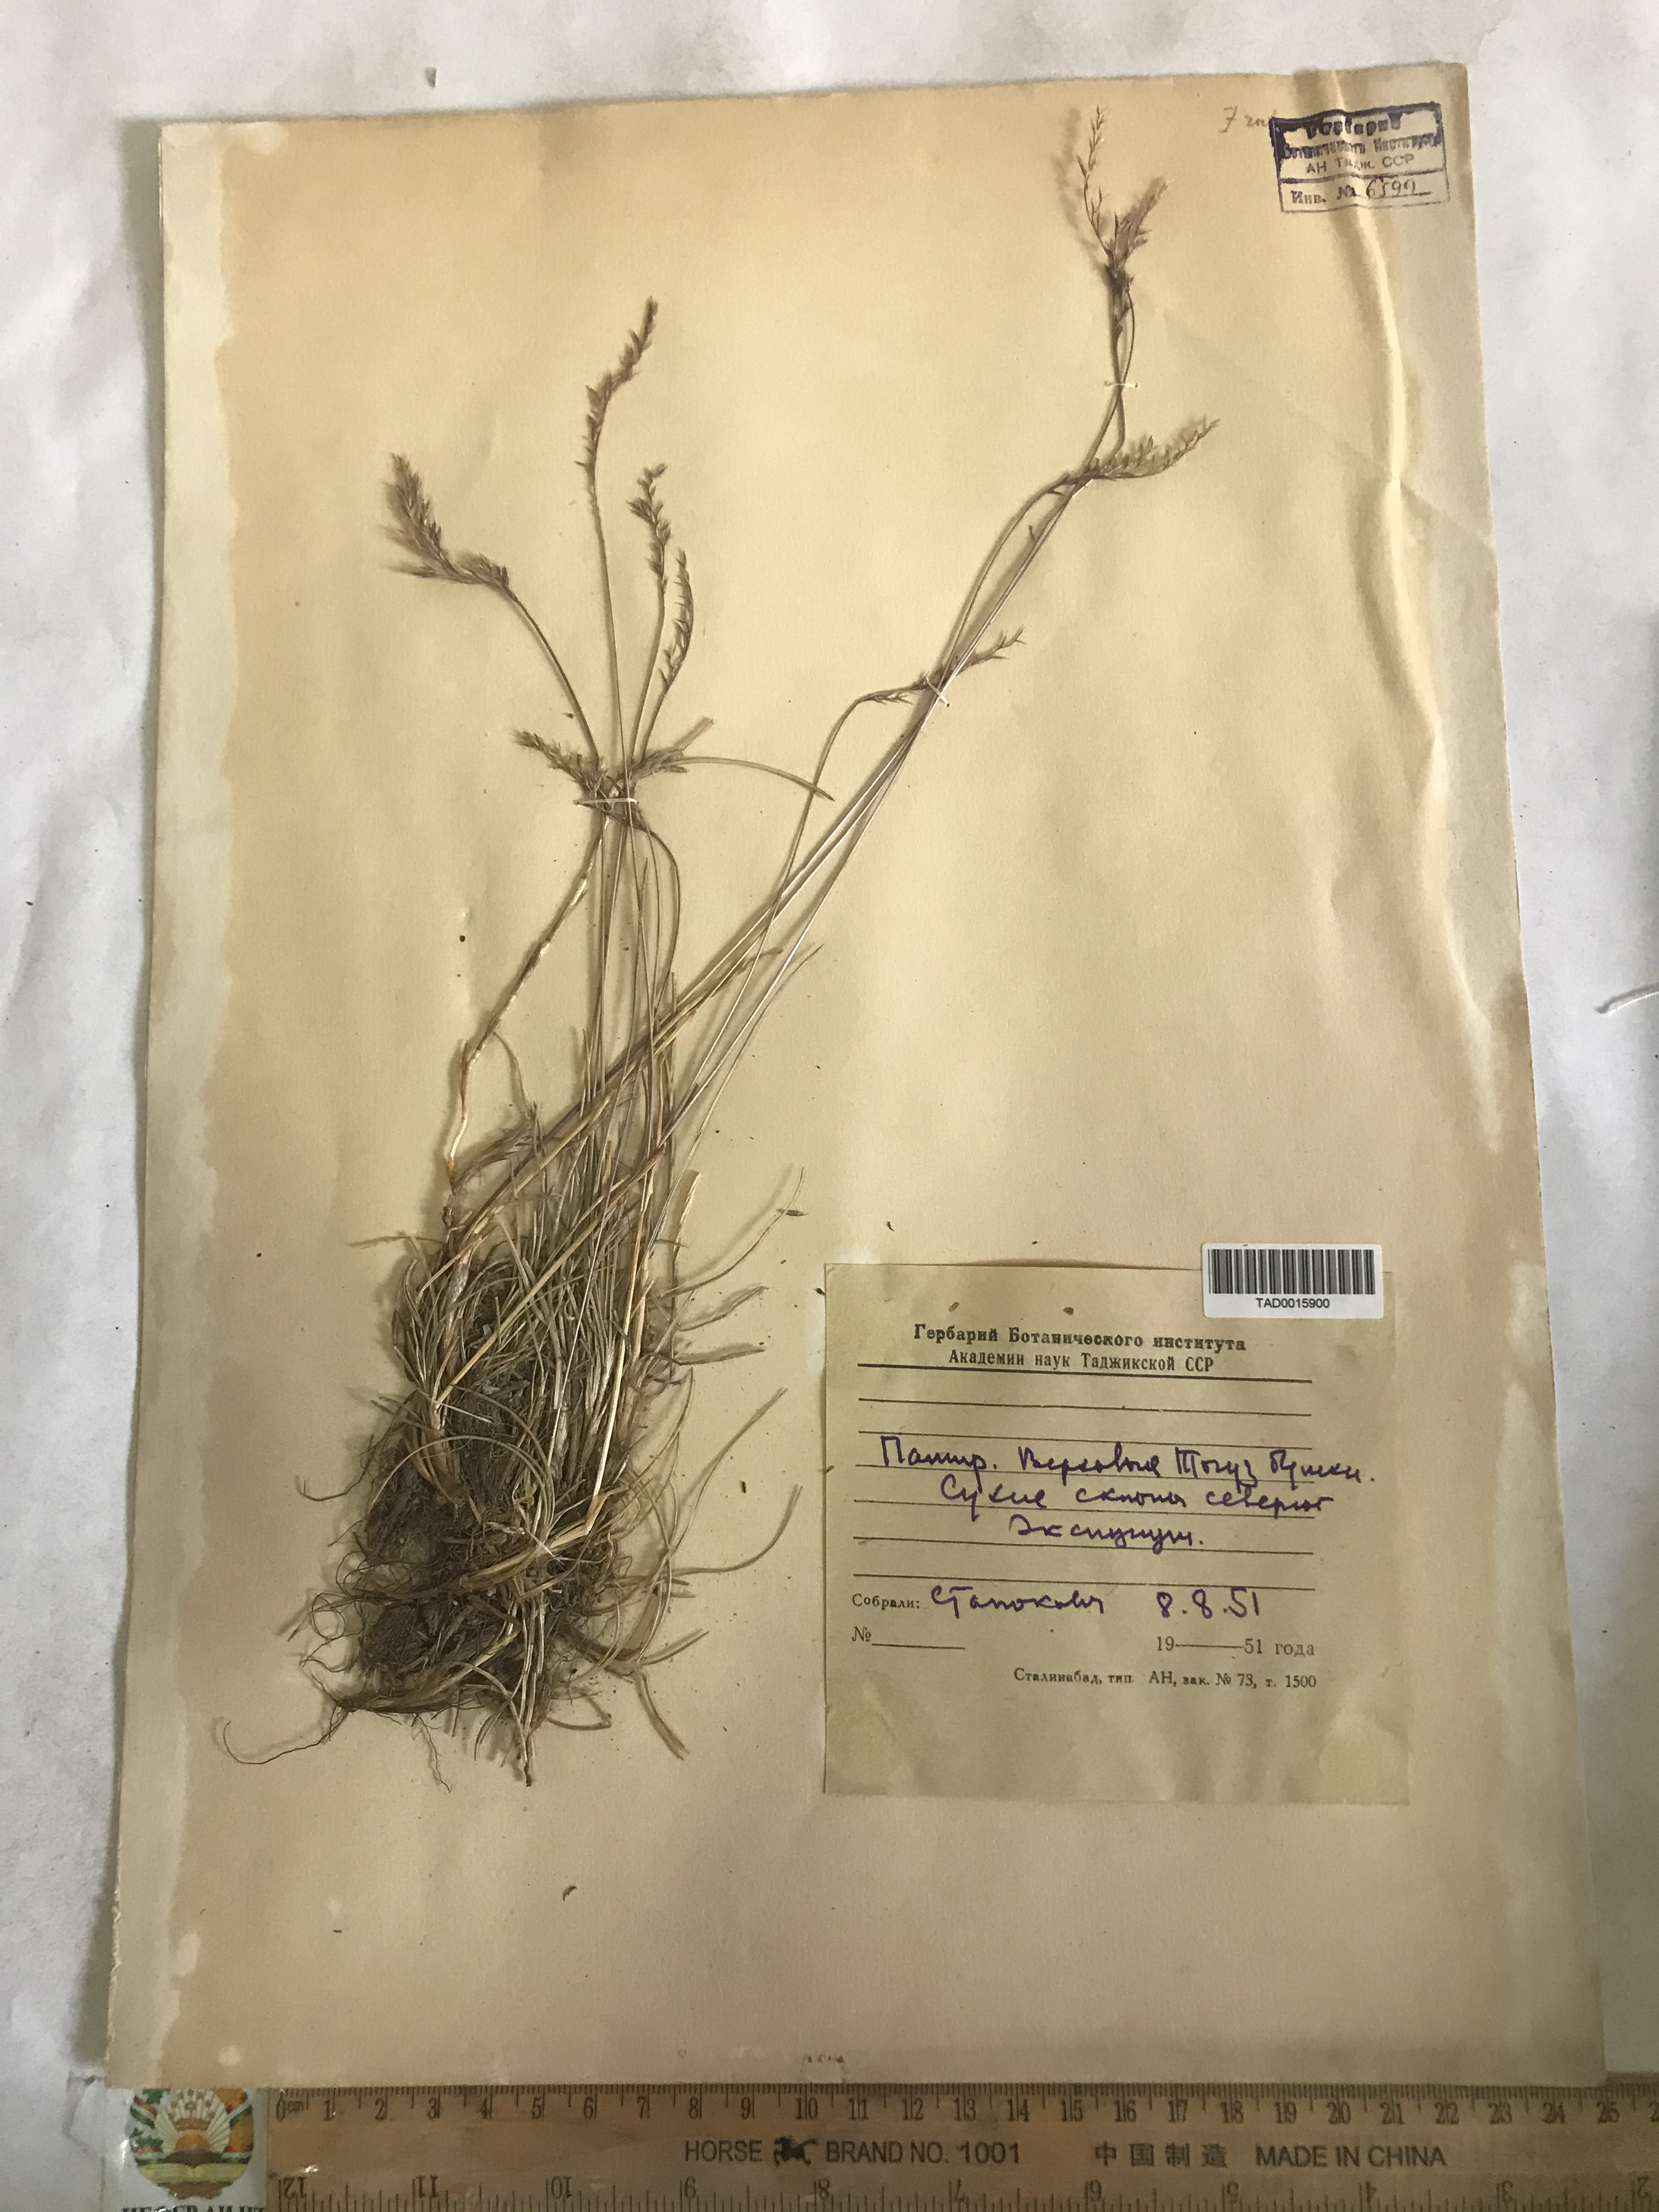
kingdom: Plantae
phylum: Tracheophyta
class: Liliopsida
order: Poales
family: Poaceae
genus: Festuca
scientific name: Festuca
